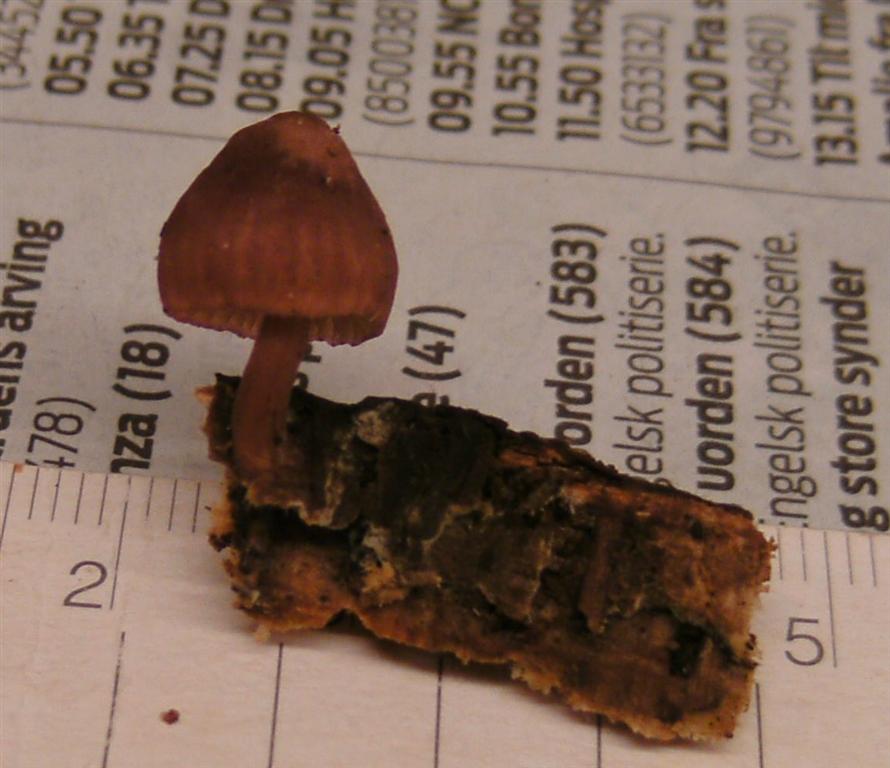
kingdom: Fungi
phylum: Basidiomycota
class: Agaricomycetes
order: Agaricales
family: Mycenaceae
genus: Mycena
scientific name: Mycena haematopus
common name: blødende huesvamp
